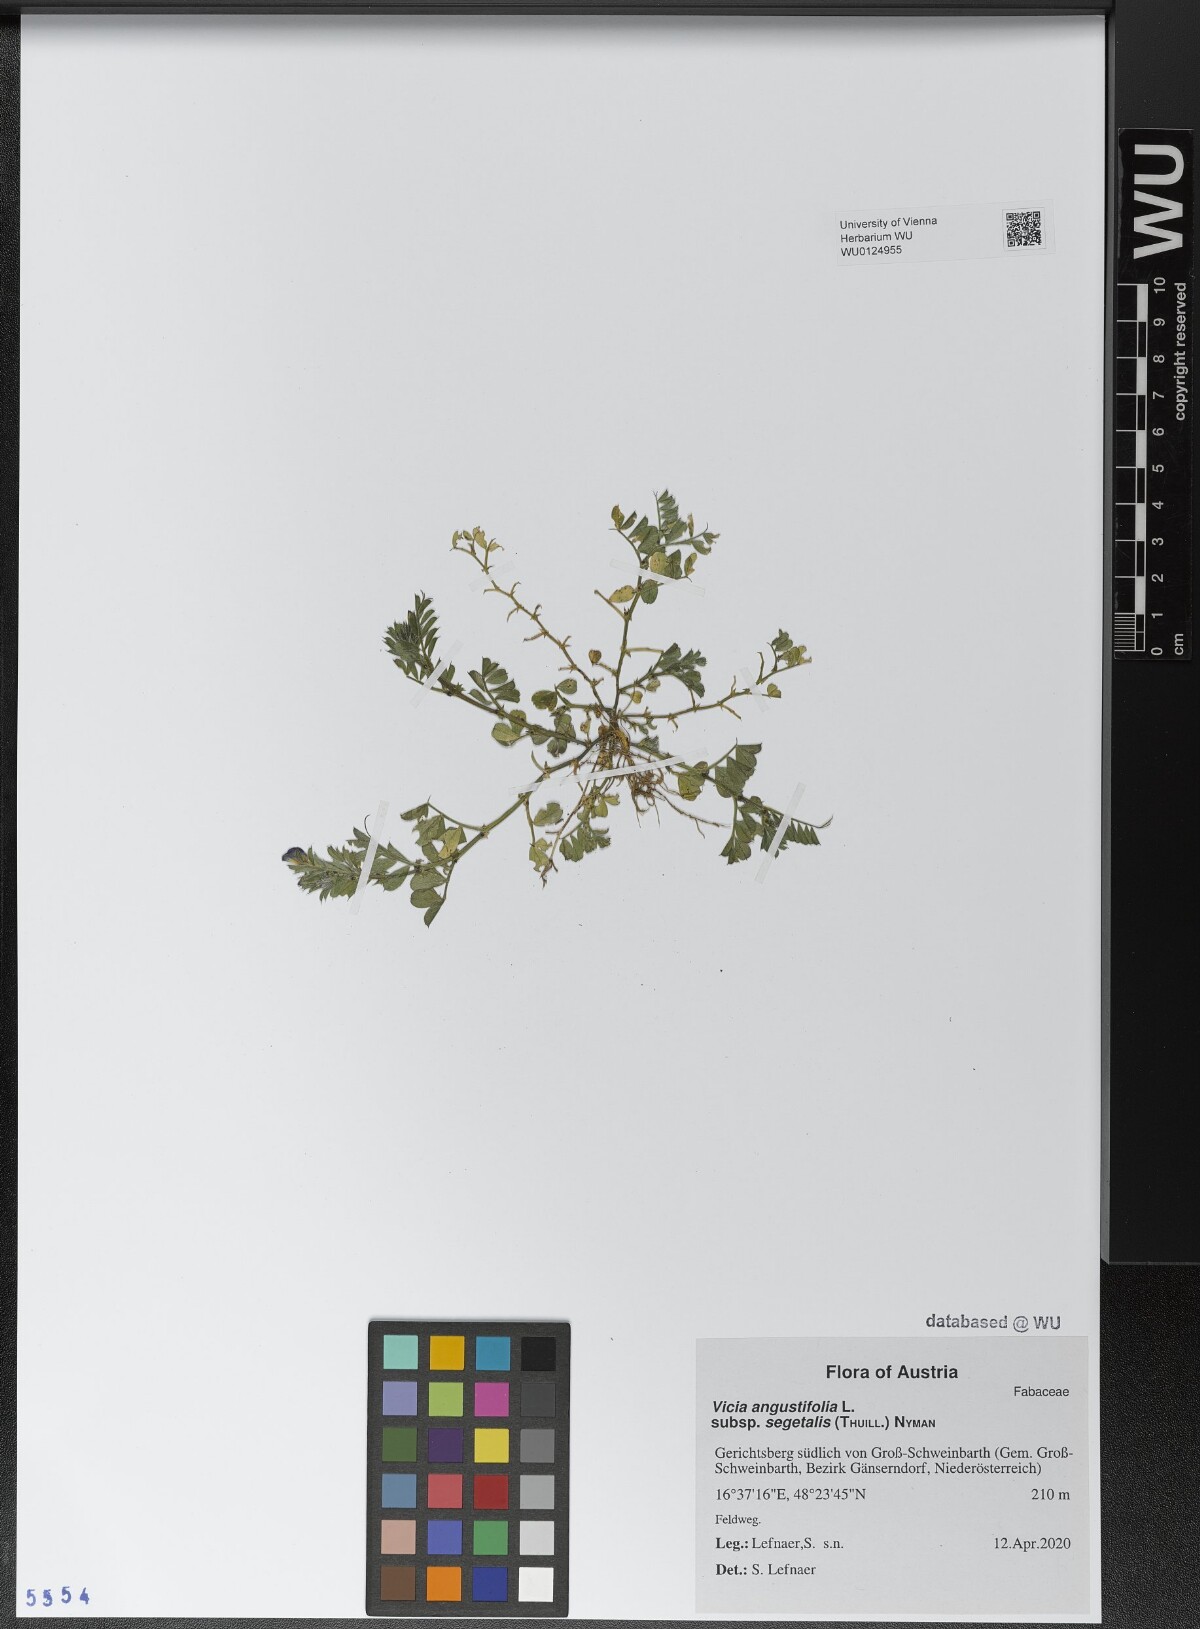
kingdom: Plantae
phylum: Tracheophyta
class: Magnoliopsida
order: Fabales
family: Fabaceae
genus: Vicia
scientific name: Vicia sativa
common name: Garden vetch
